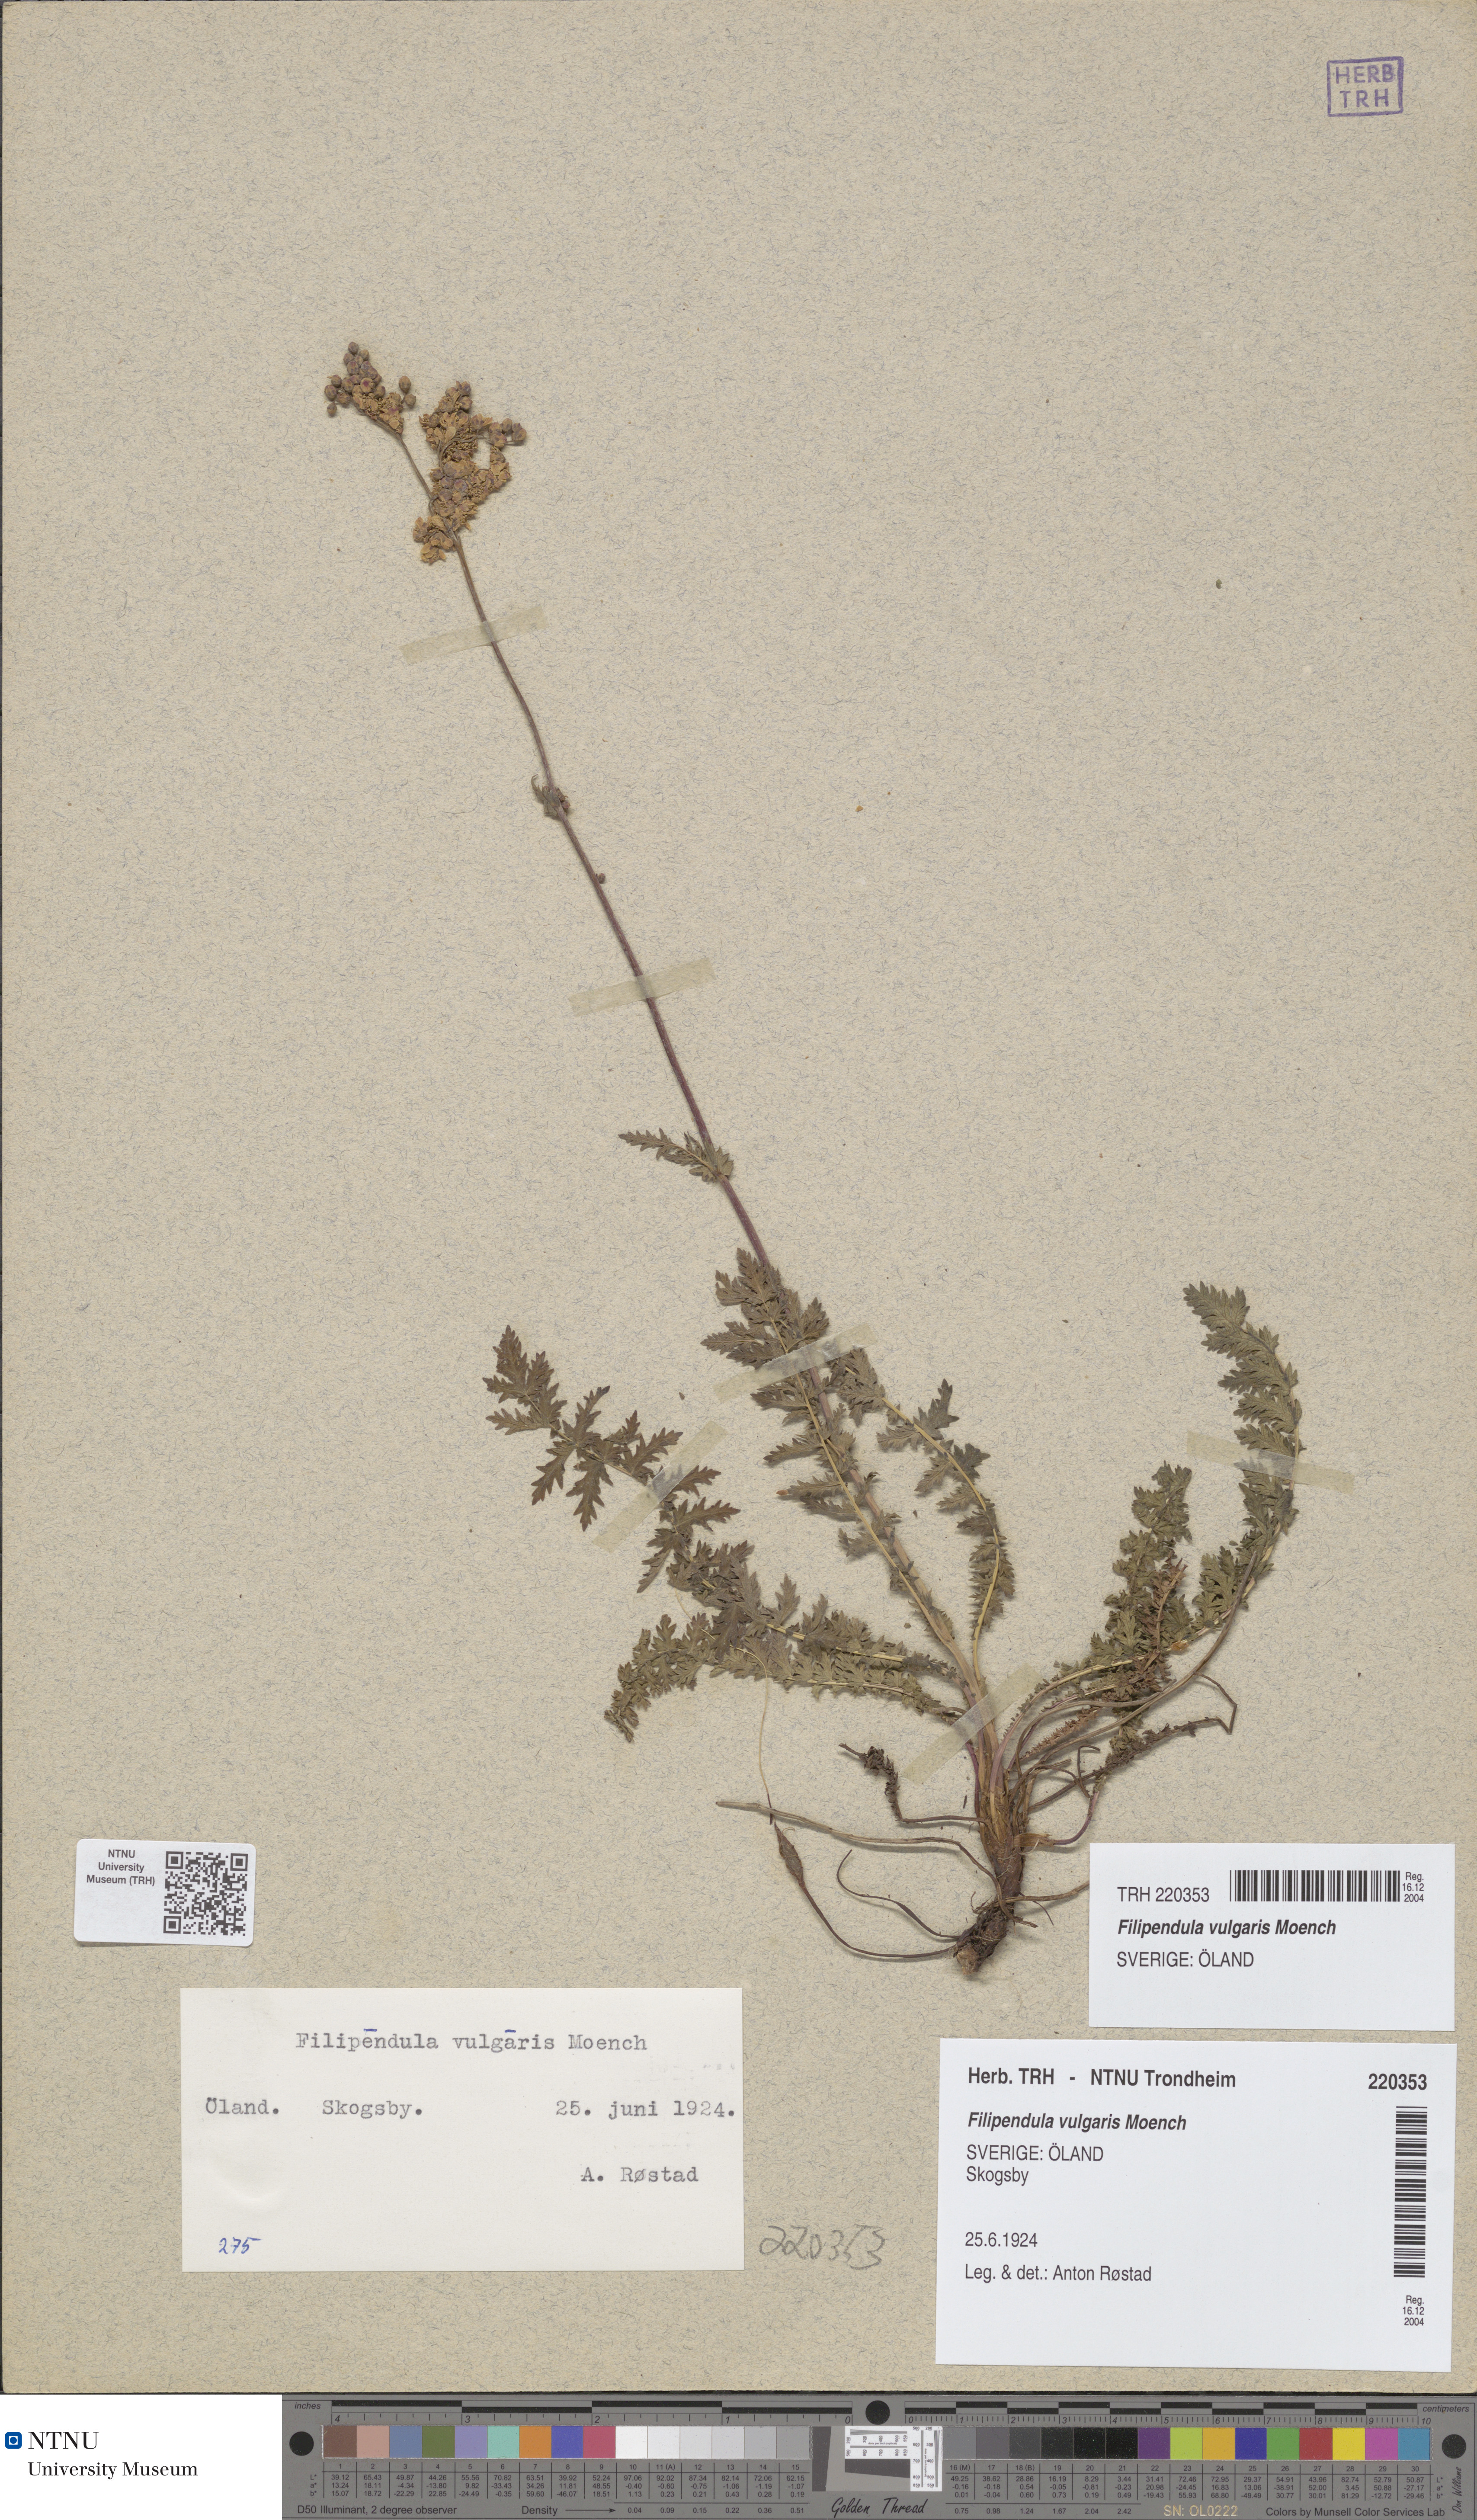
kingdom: Plantae
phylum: Tracheophyta
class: Magnoliopsida
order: Rosales
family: Rosaceae
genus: Filipendula
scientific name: Filipendula vulgaris
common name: Dropwort
